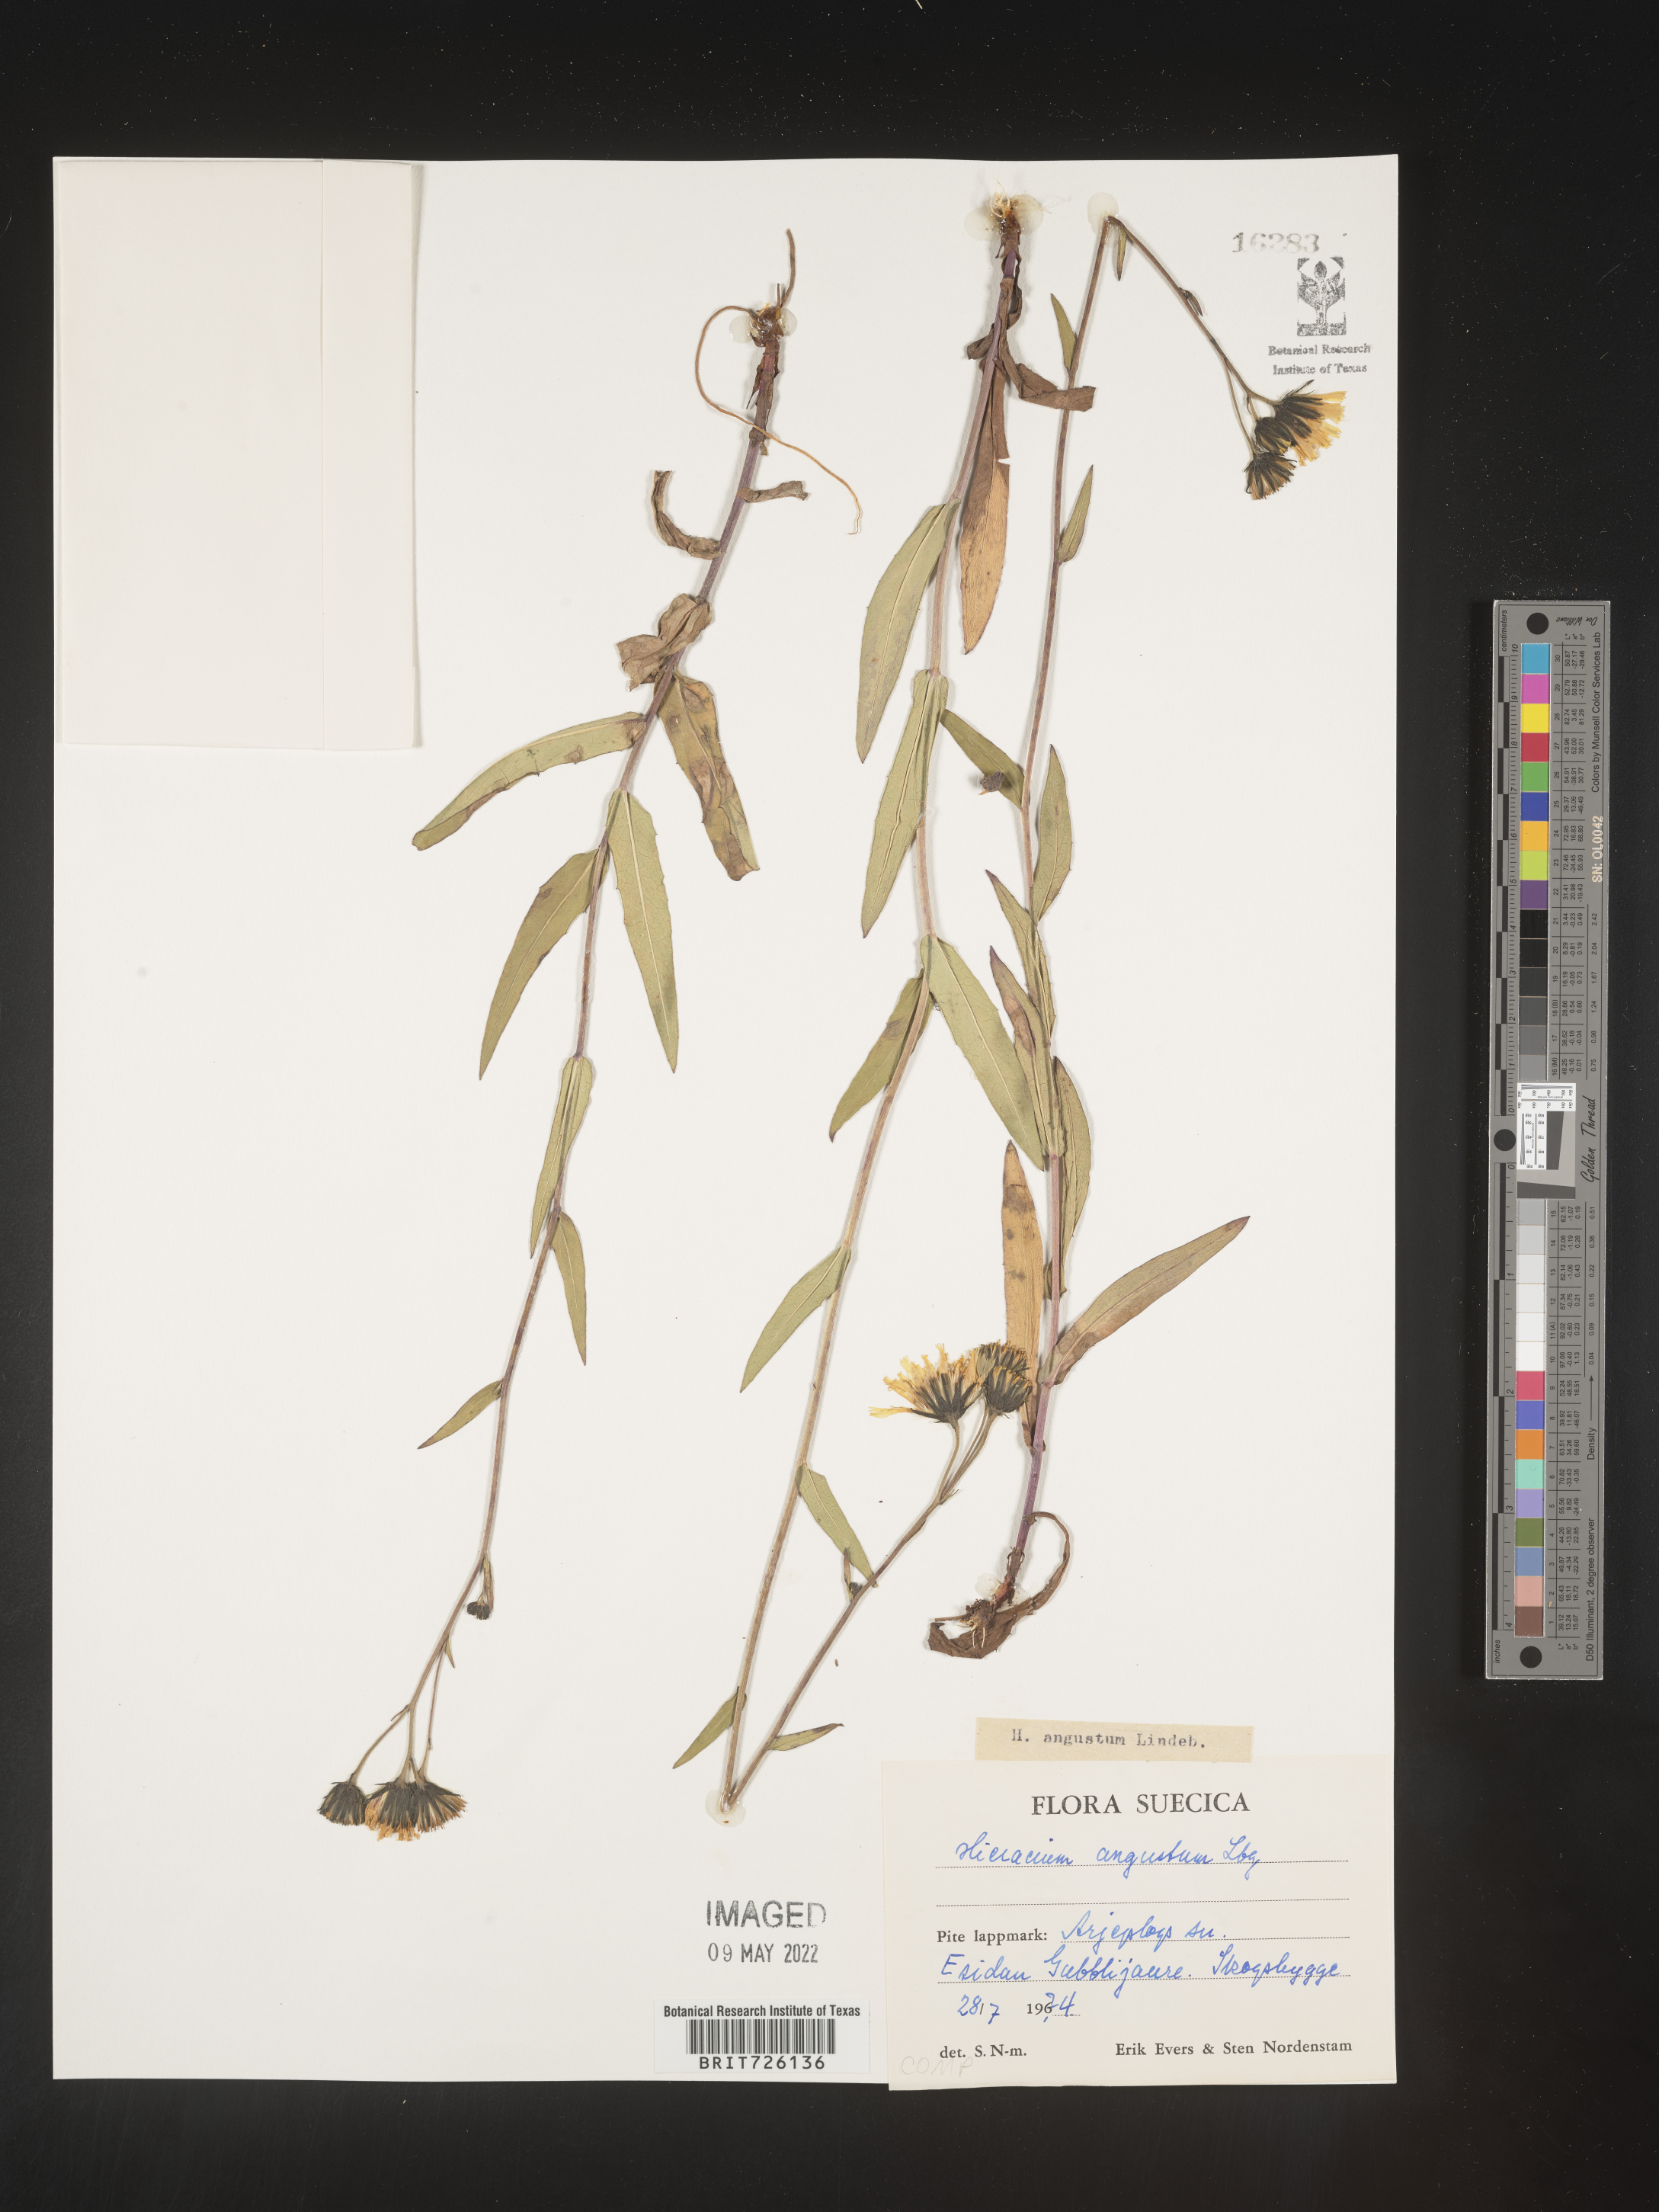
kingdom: Plantae
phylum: Tracheophyta
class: Magnoliopsida
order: Asterales
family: Asteraceae
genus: Hieracium
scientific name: Hieracium
